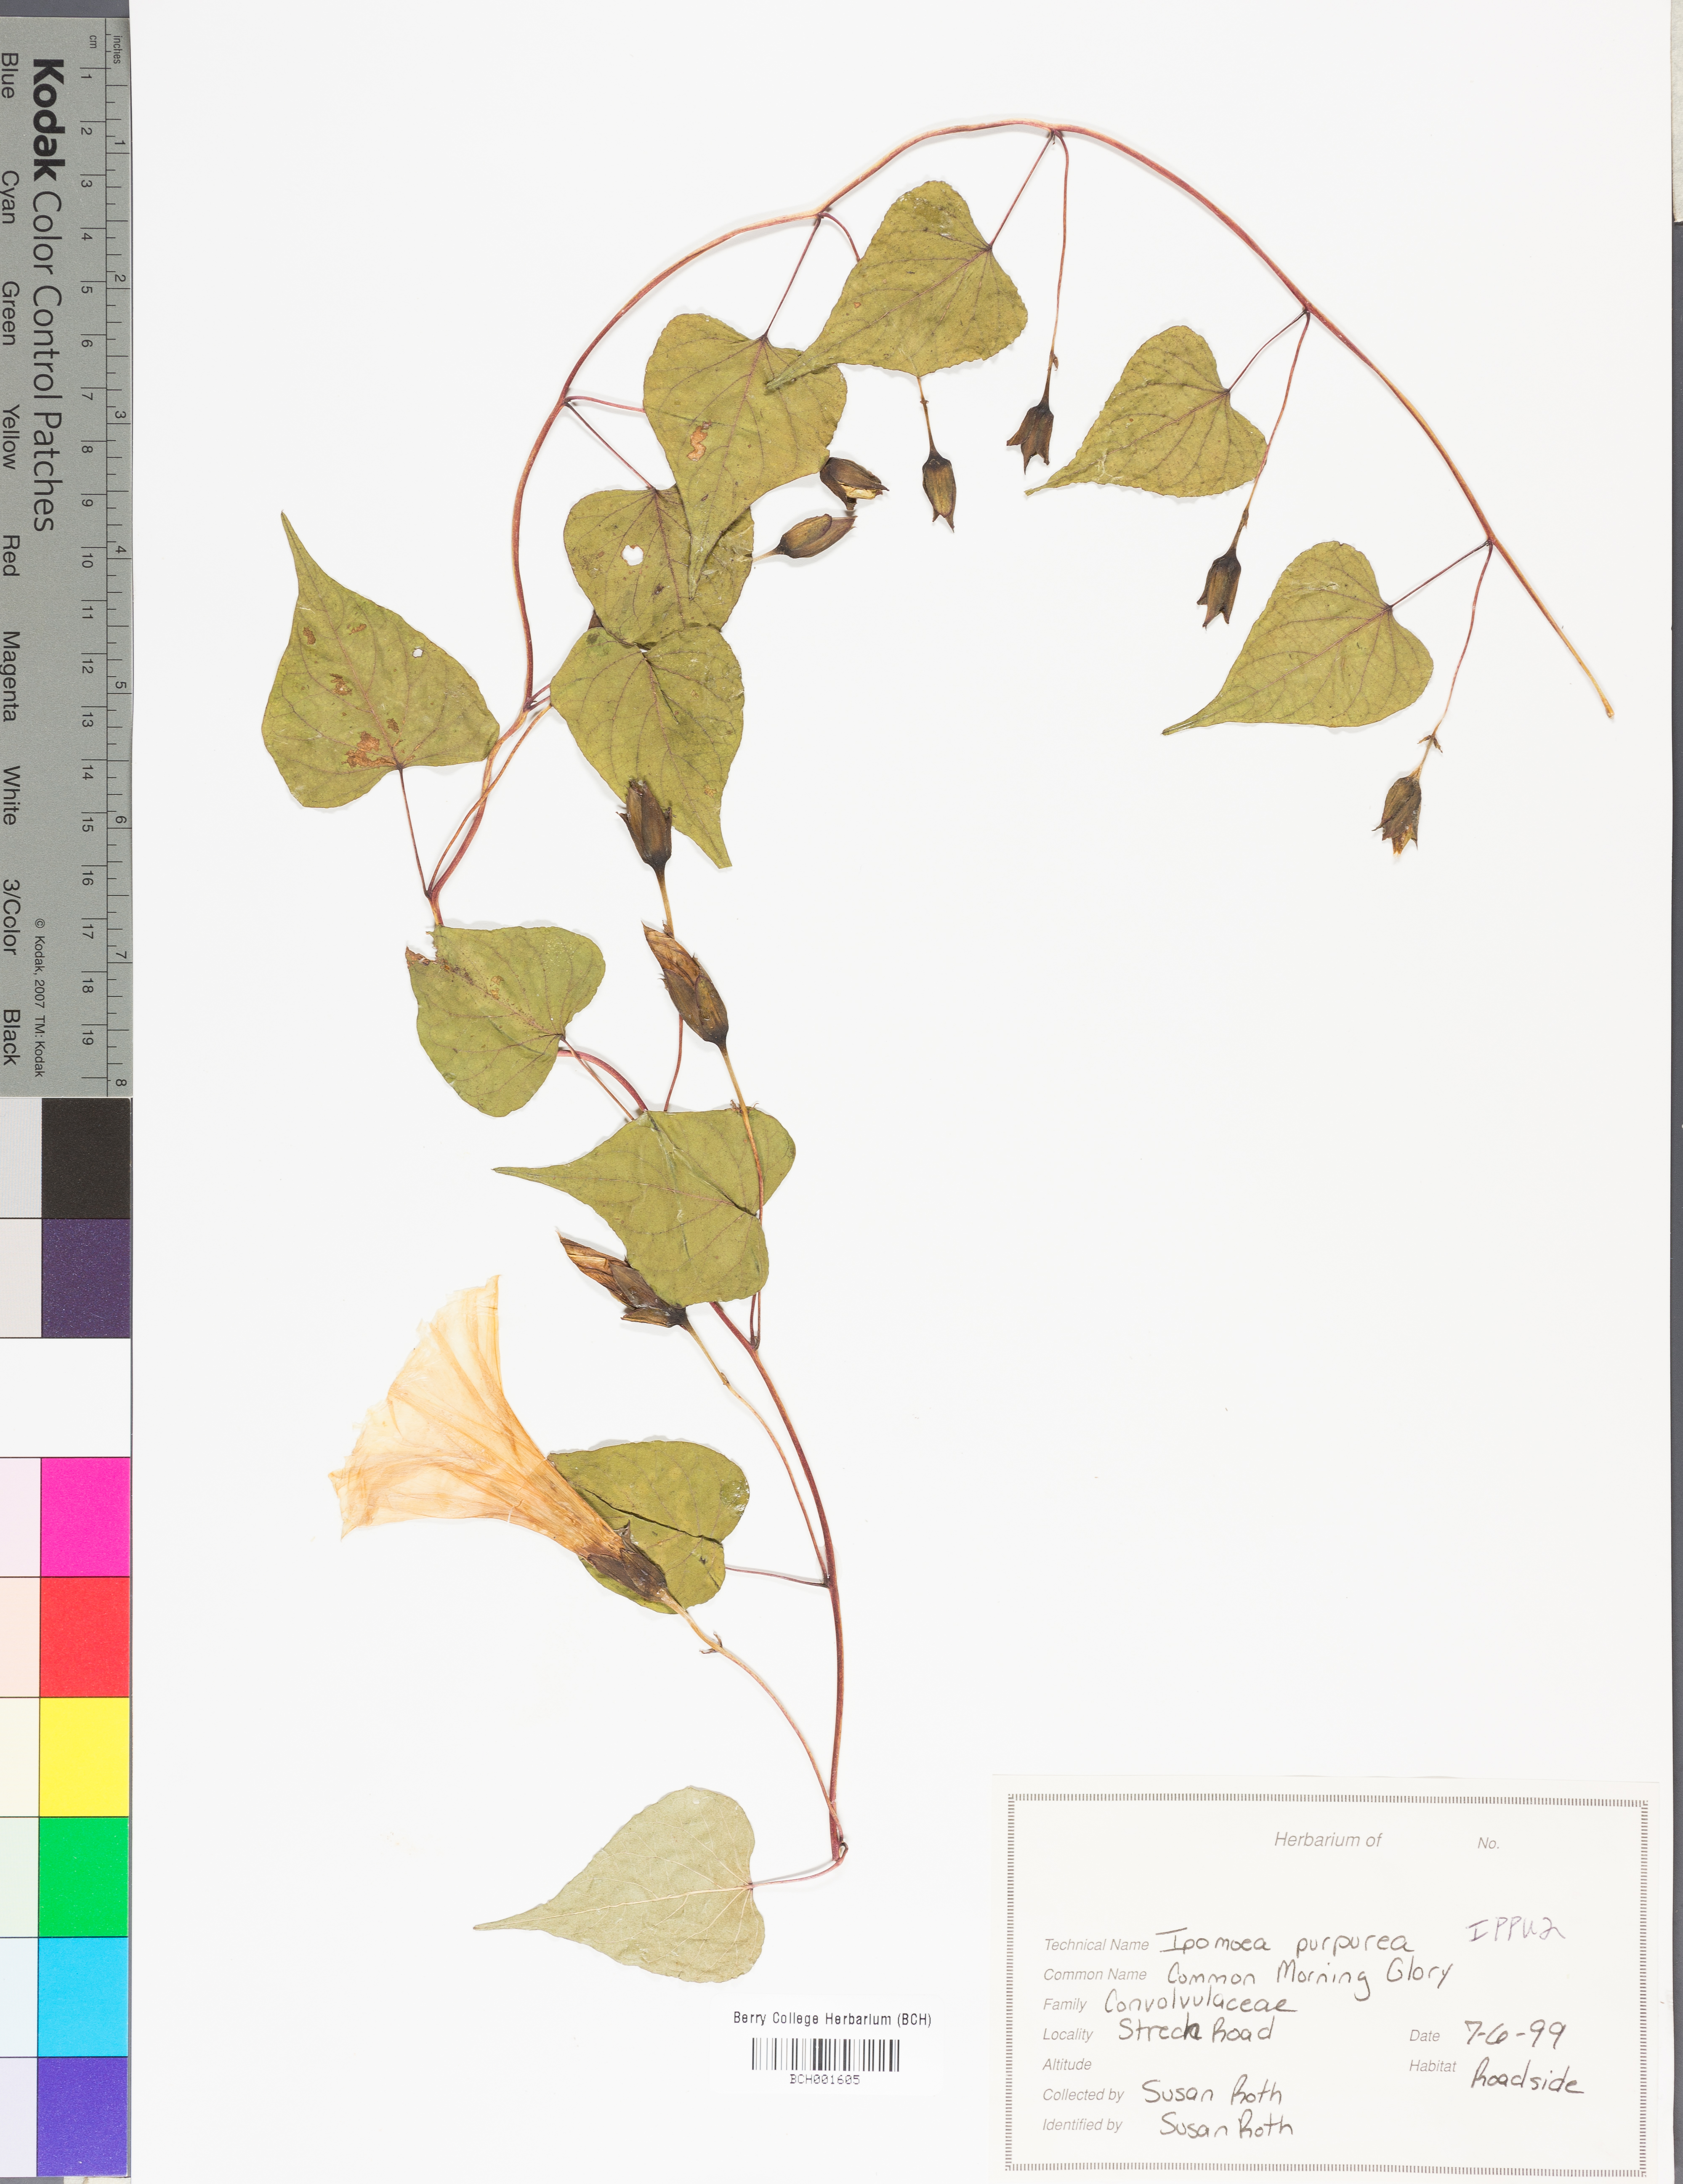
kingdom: Plantae
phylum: Tracheophyta
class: Magnoliopsida
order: Solanales
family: Convolvulaceae
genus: Ipomoea
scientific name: Ipomoea purpurea
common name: Common morning-glory
